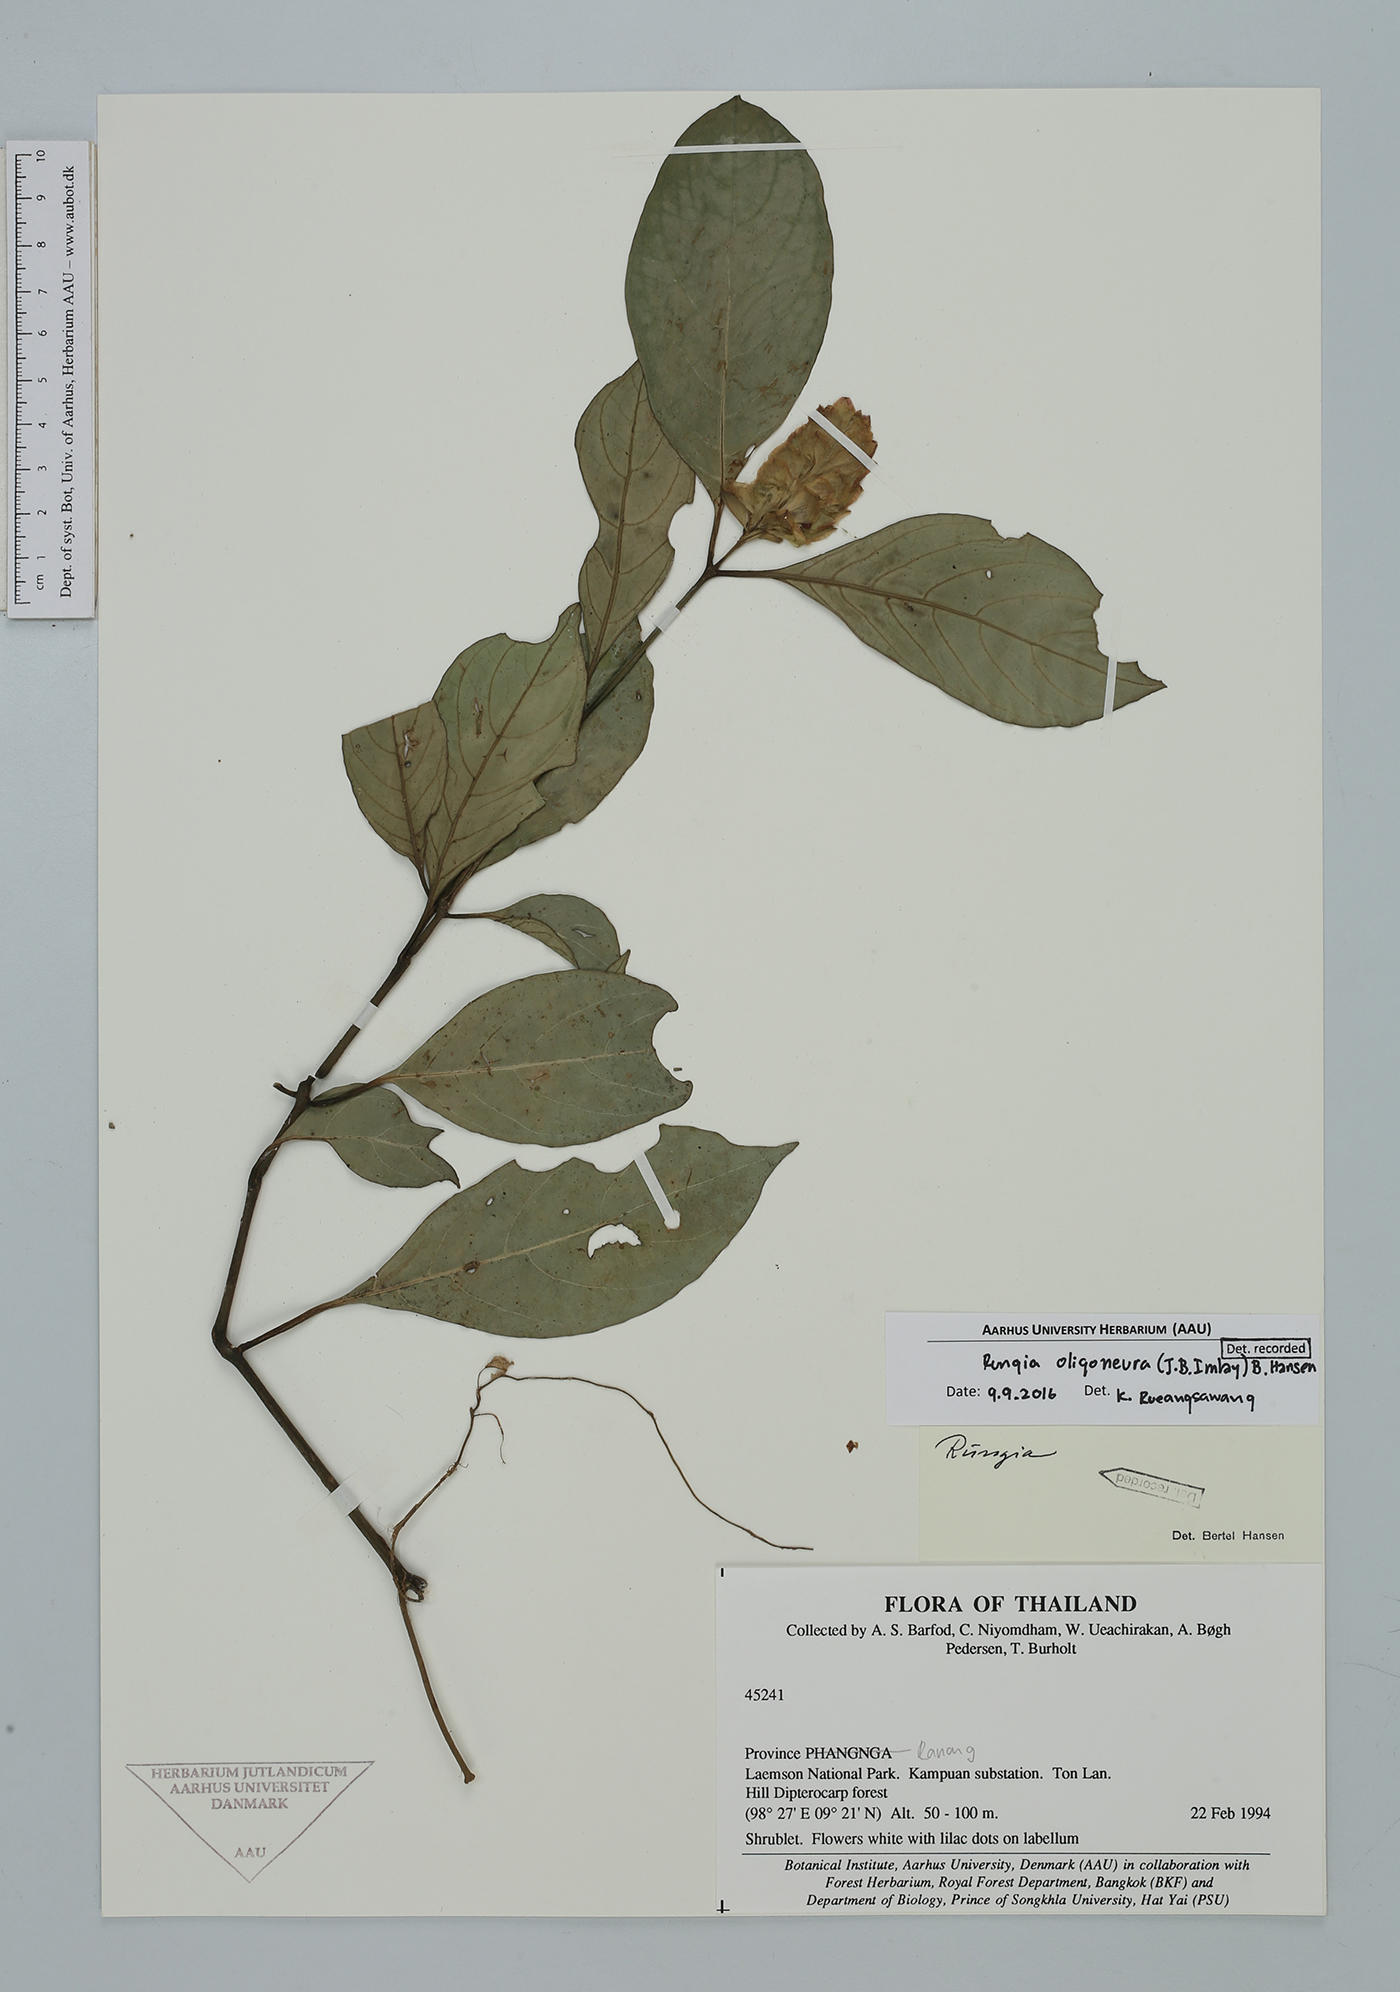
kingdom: Plantae
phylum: Tracheophyta
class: Magnoliopsida
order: Lamiales
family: Acanthaceae
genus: Rungia
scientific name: Rungia oligoneura
